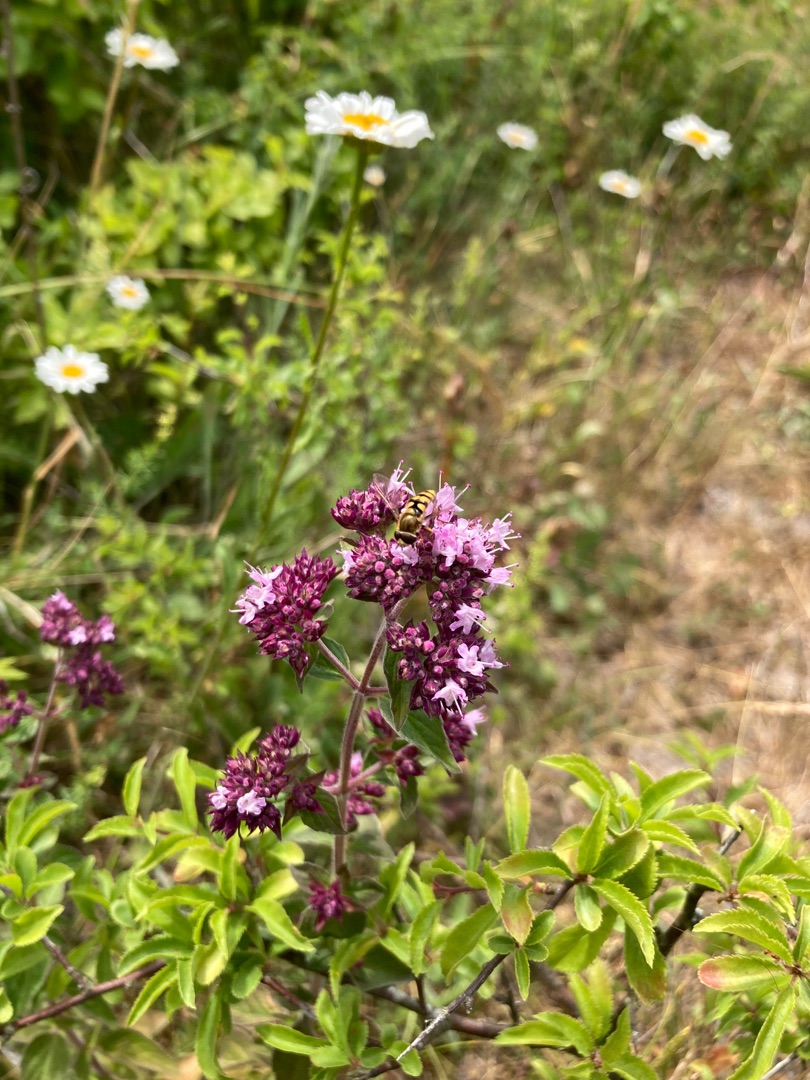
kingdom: Plantae
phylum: Tracheophyta
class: Magnoliopsida
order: Lamiales
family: Lamiaceae
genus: Origanum
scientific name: Origanum vulgare
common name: Merian
